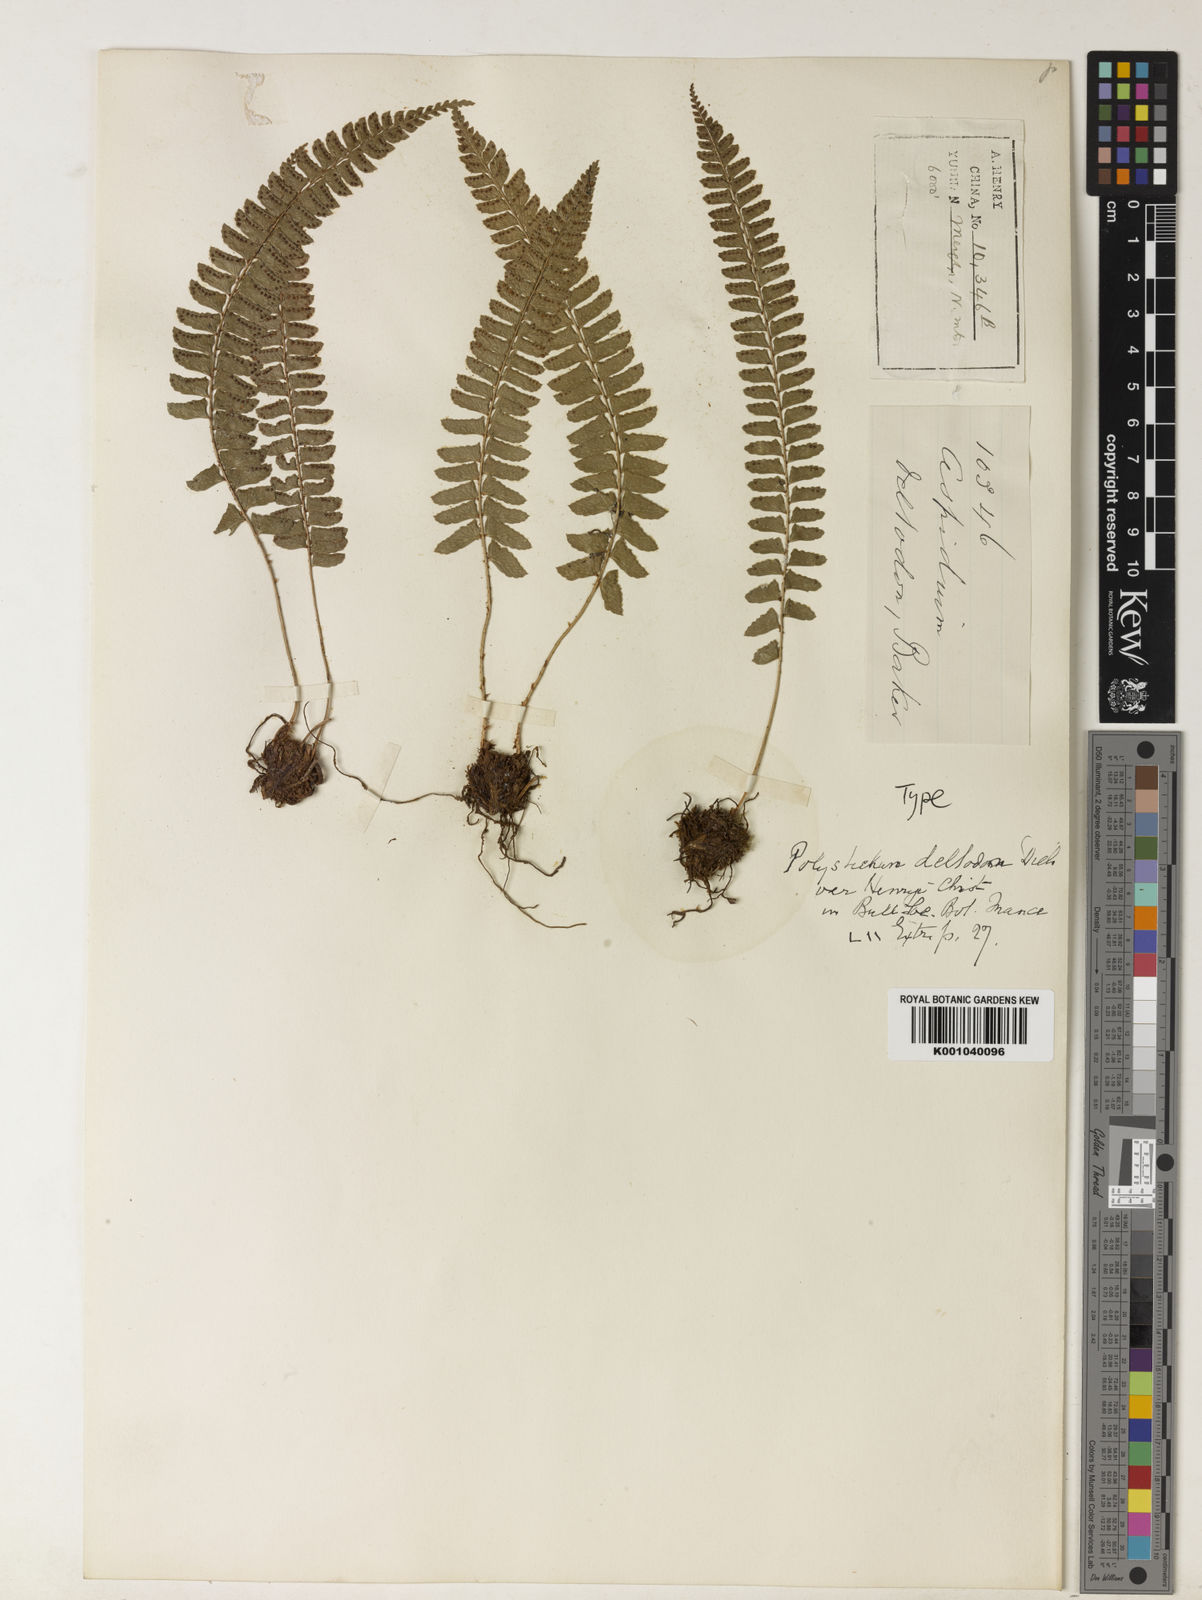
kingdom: Plantae
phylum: Tracheophyta
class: Polypodiopsida
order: Polypodiales
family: Dryopteridaceae
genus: Polystichum
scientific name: Polystichum mengziense
